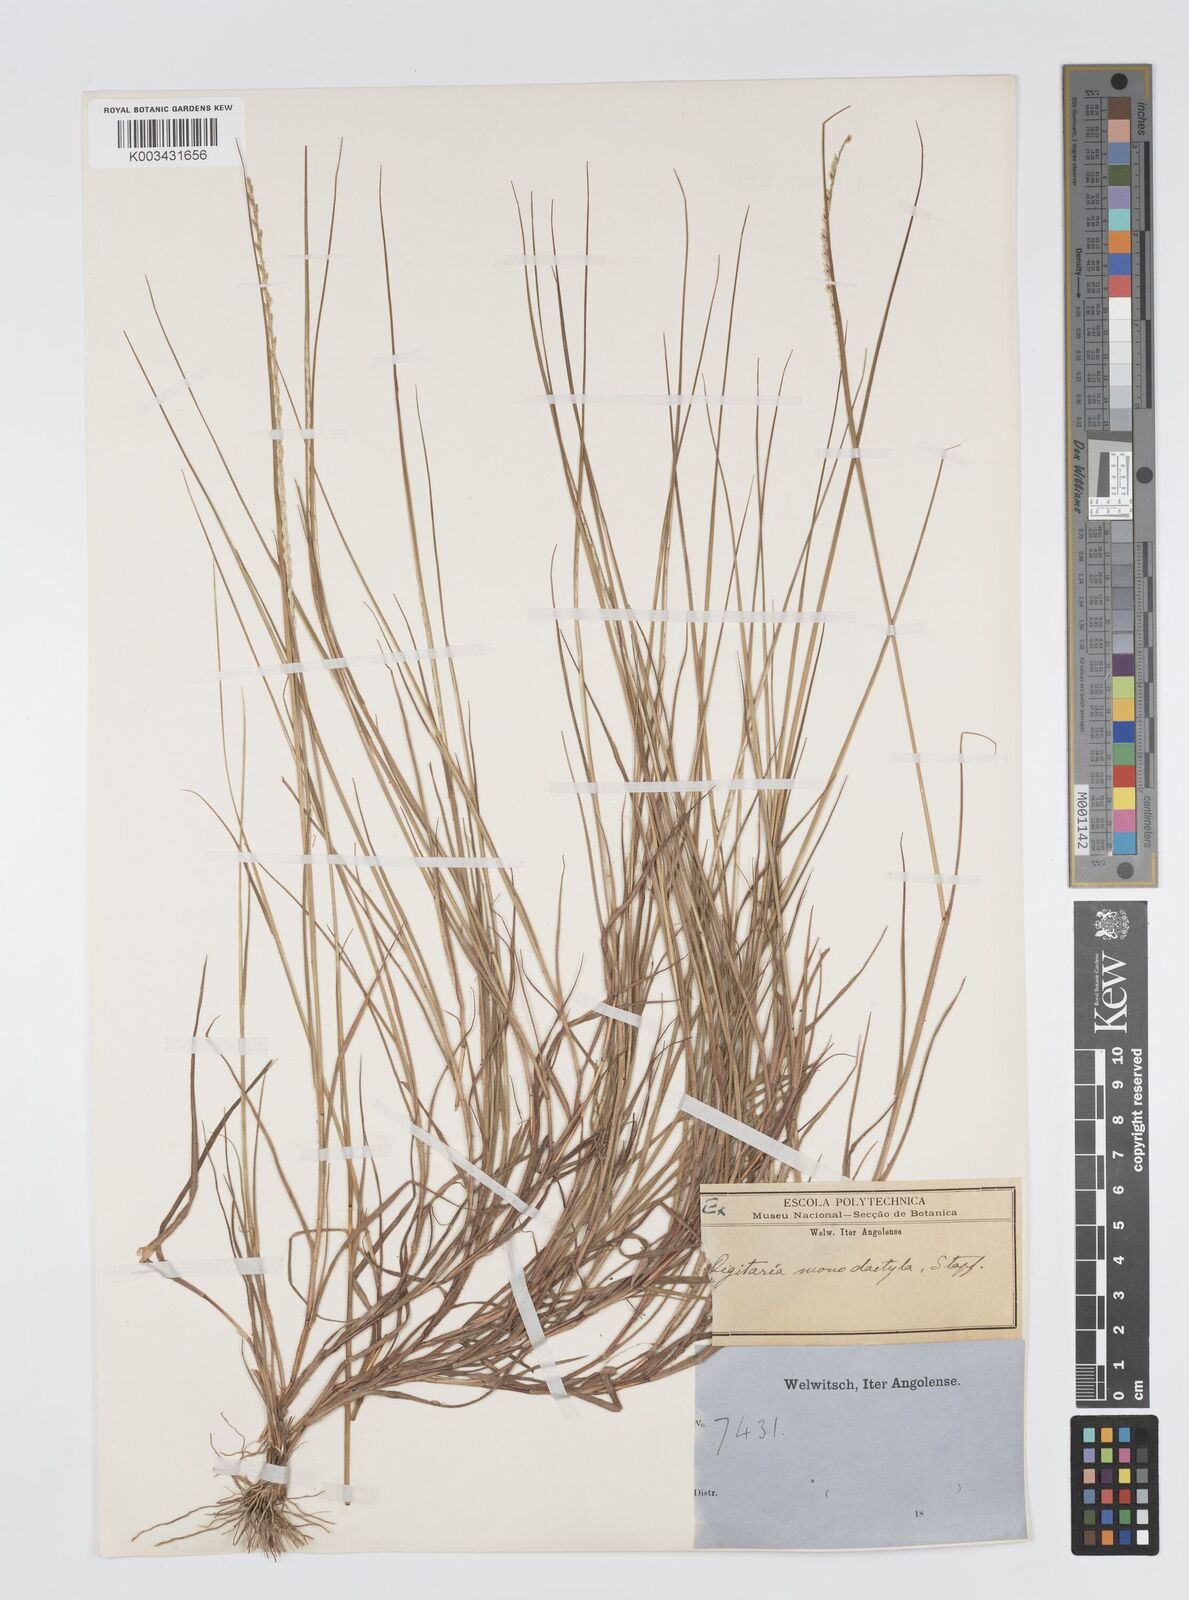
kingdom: Plantae
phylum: Tracheophyta
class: Liliopsida
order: Poales
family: Poaceae
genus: Digitaria
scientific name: Digitaria monodactyla
